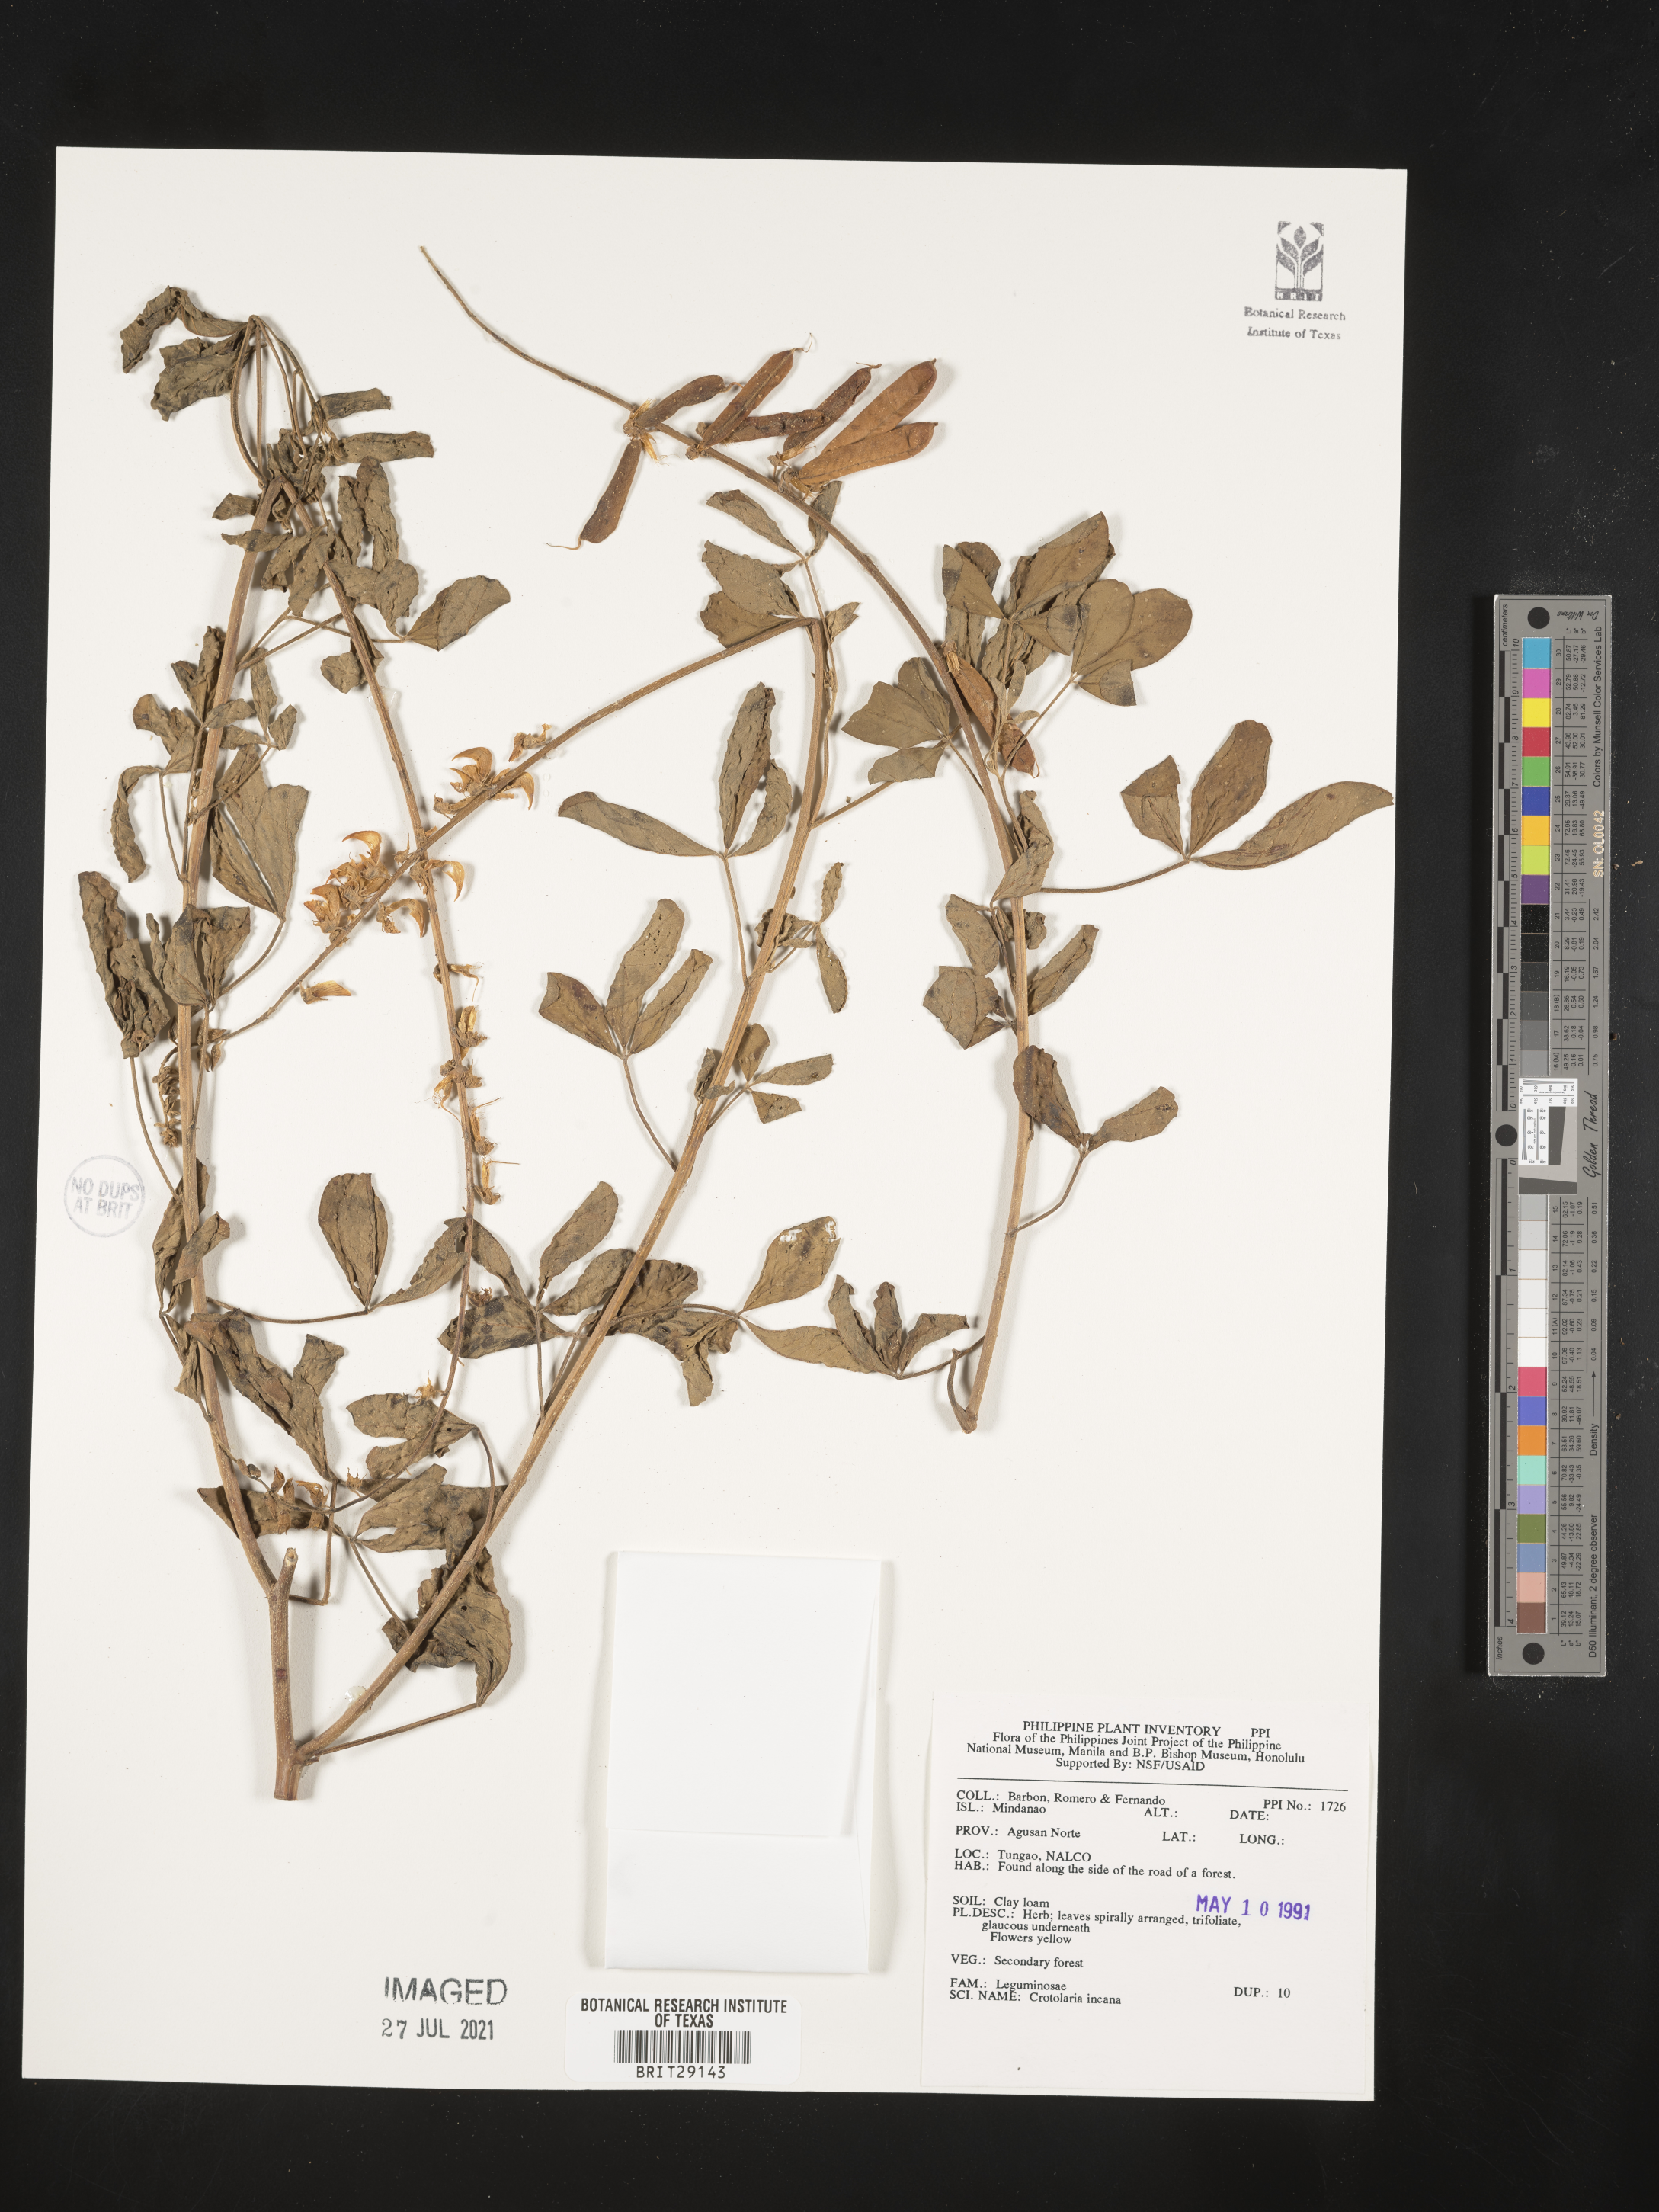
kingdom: Plantae
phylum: Tracheophyta
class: Magnoliopsida
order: Fabales
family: Fabaceae
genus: Crotalaria
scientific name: Crotalaria incana
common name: Shakeshake
